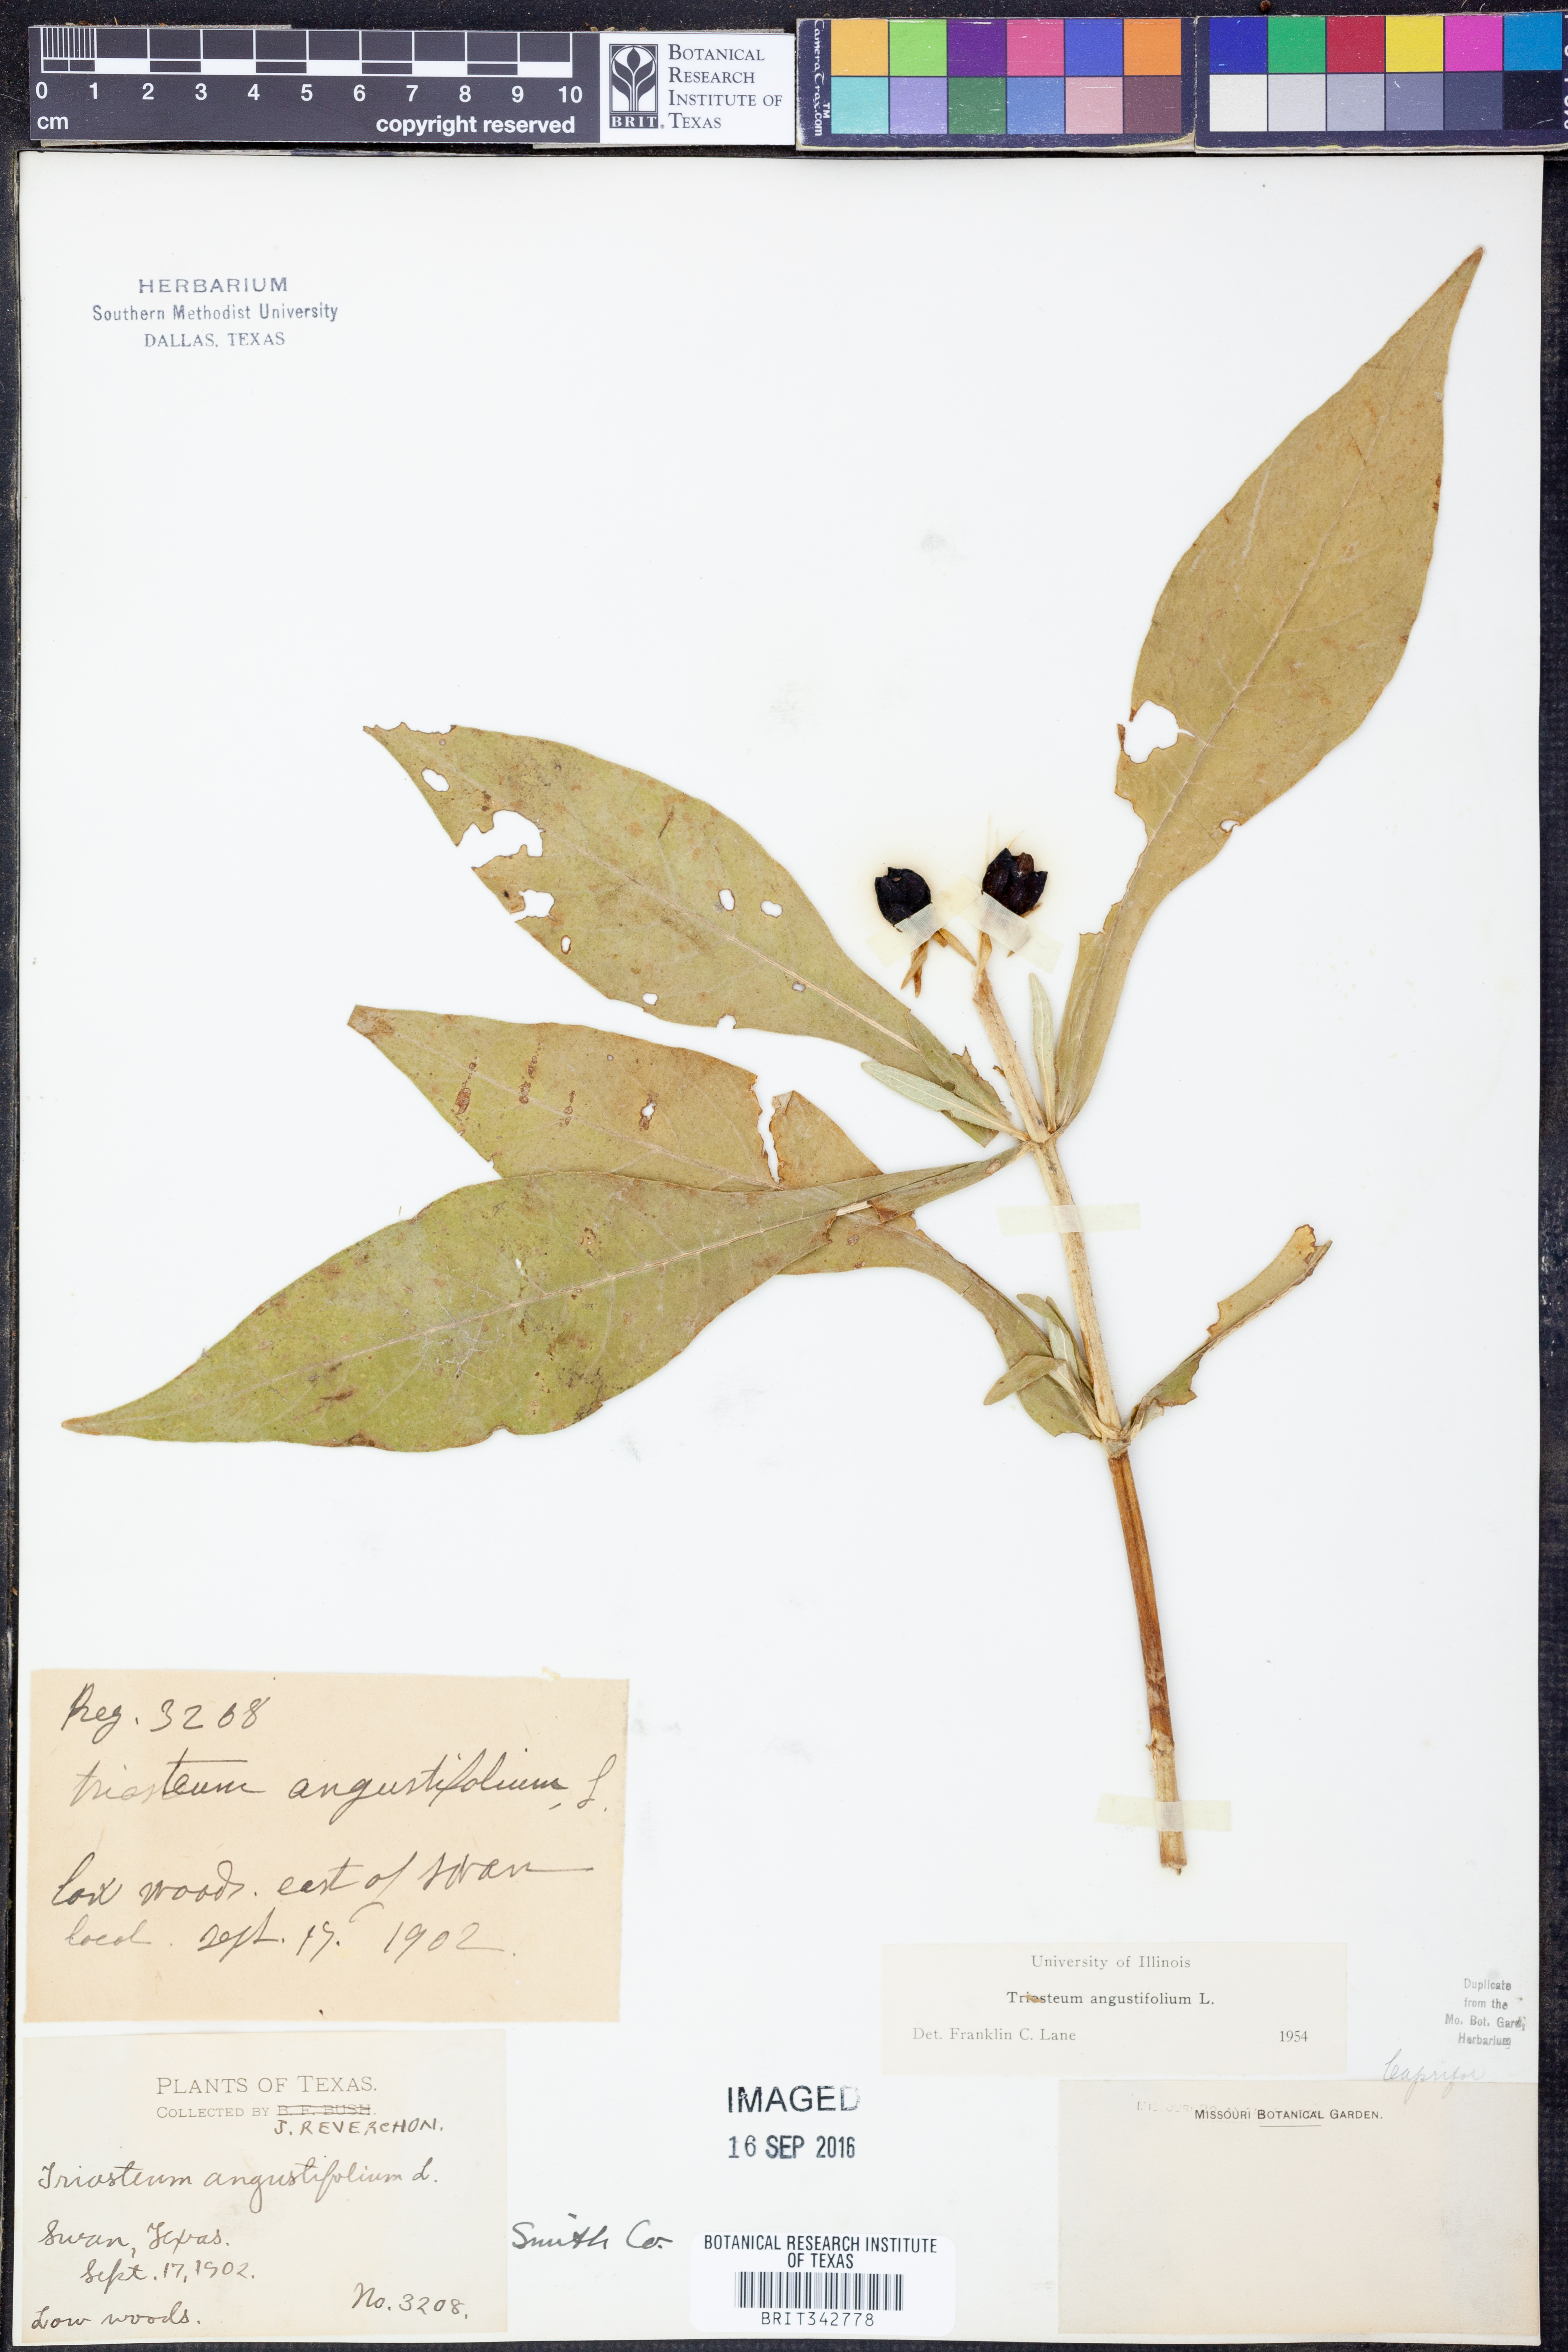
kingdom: Plantae
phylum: Tracheophyta
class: Magnoliopsida
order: Dipsacales
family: Caprifoliaceae
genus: Triosteum
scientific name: Triosteum angustifolium
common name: Narrow-leaved horse-gentian
